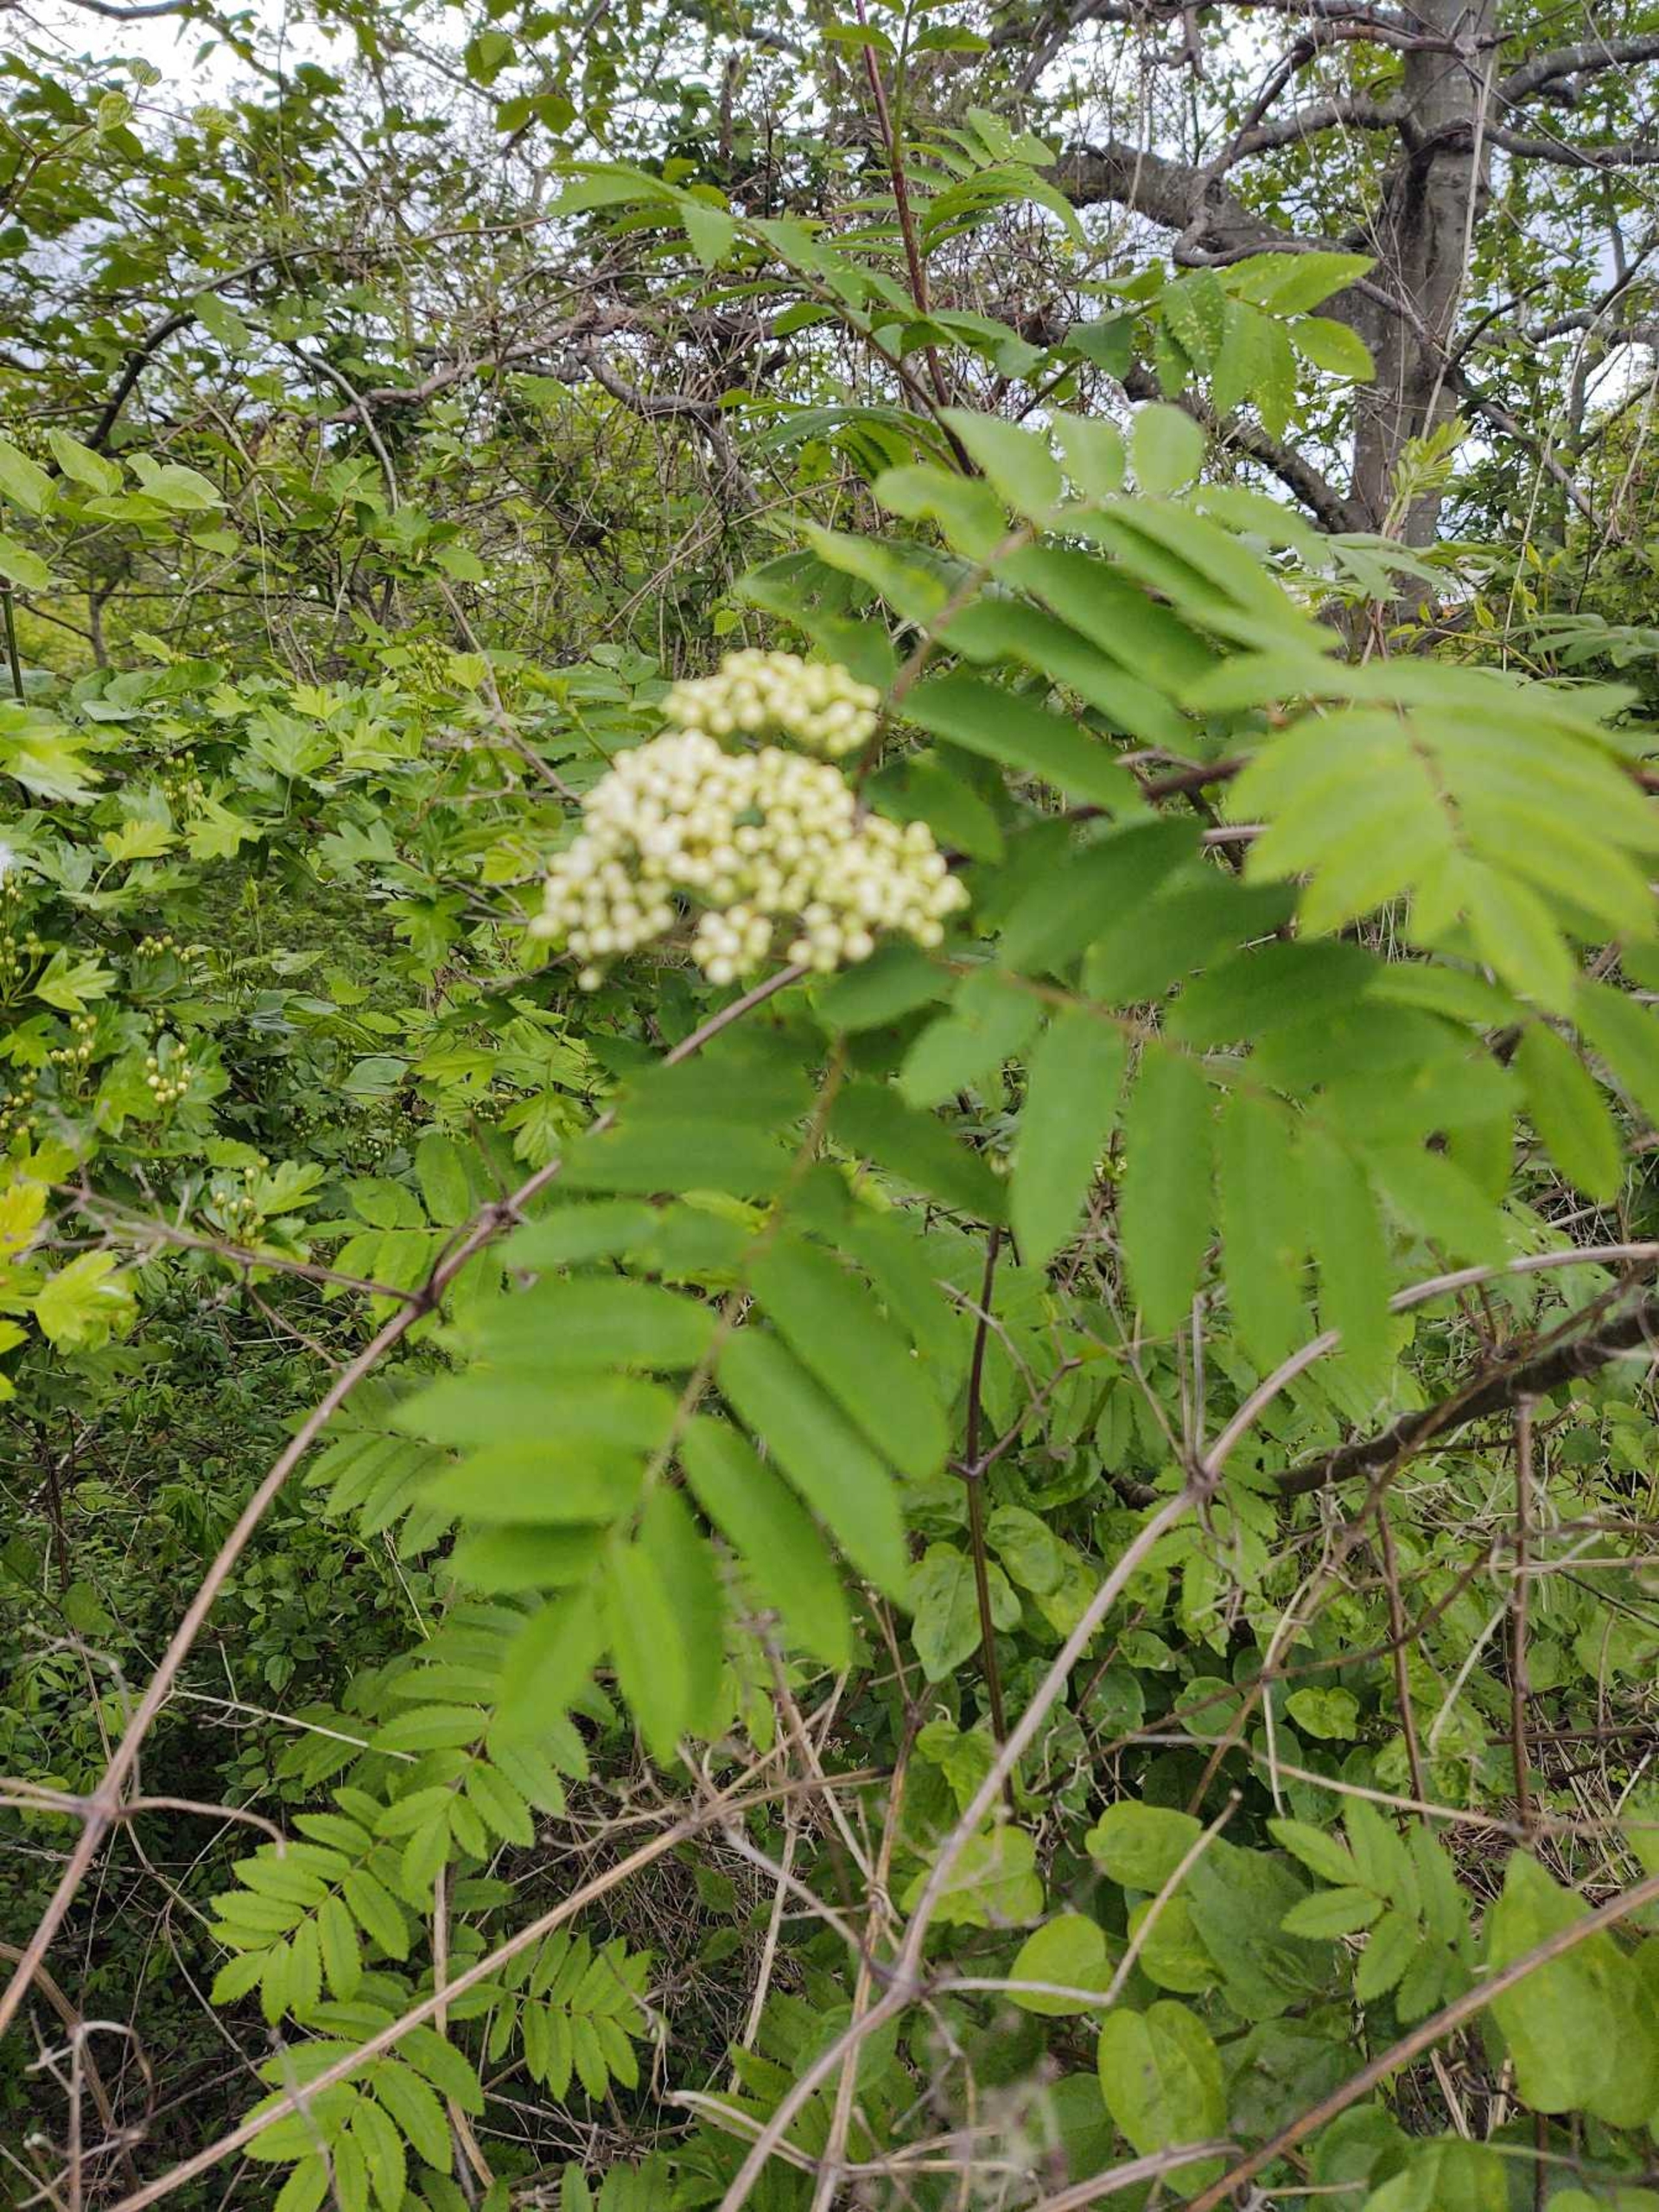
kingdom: Plantae
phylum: Tracheophyta
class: Magnoliopsida
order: Rosales
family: Rosaceae
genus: Sorbus
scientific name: Sorbus aucuparia
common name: Almindelig røn
